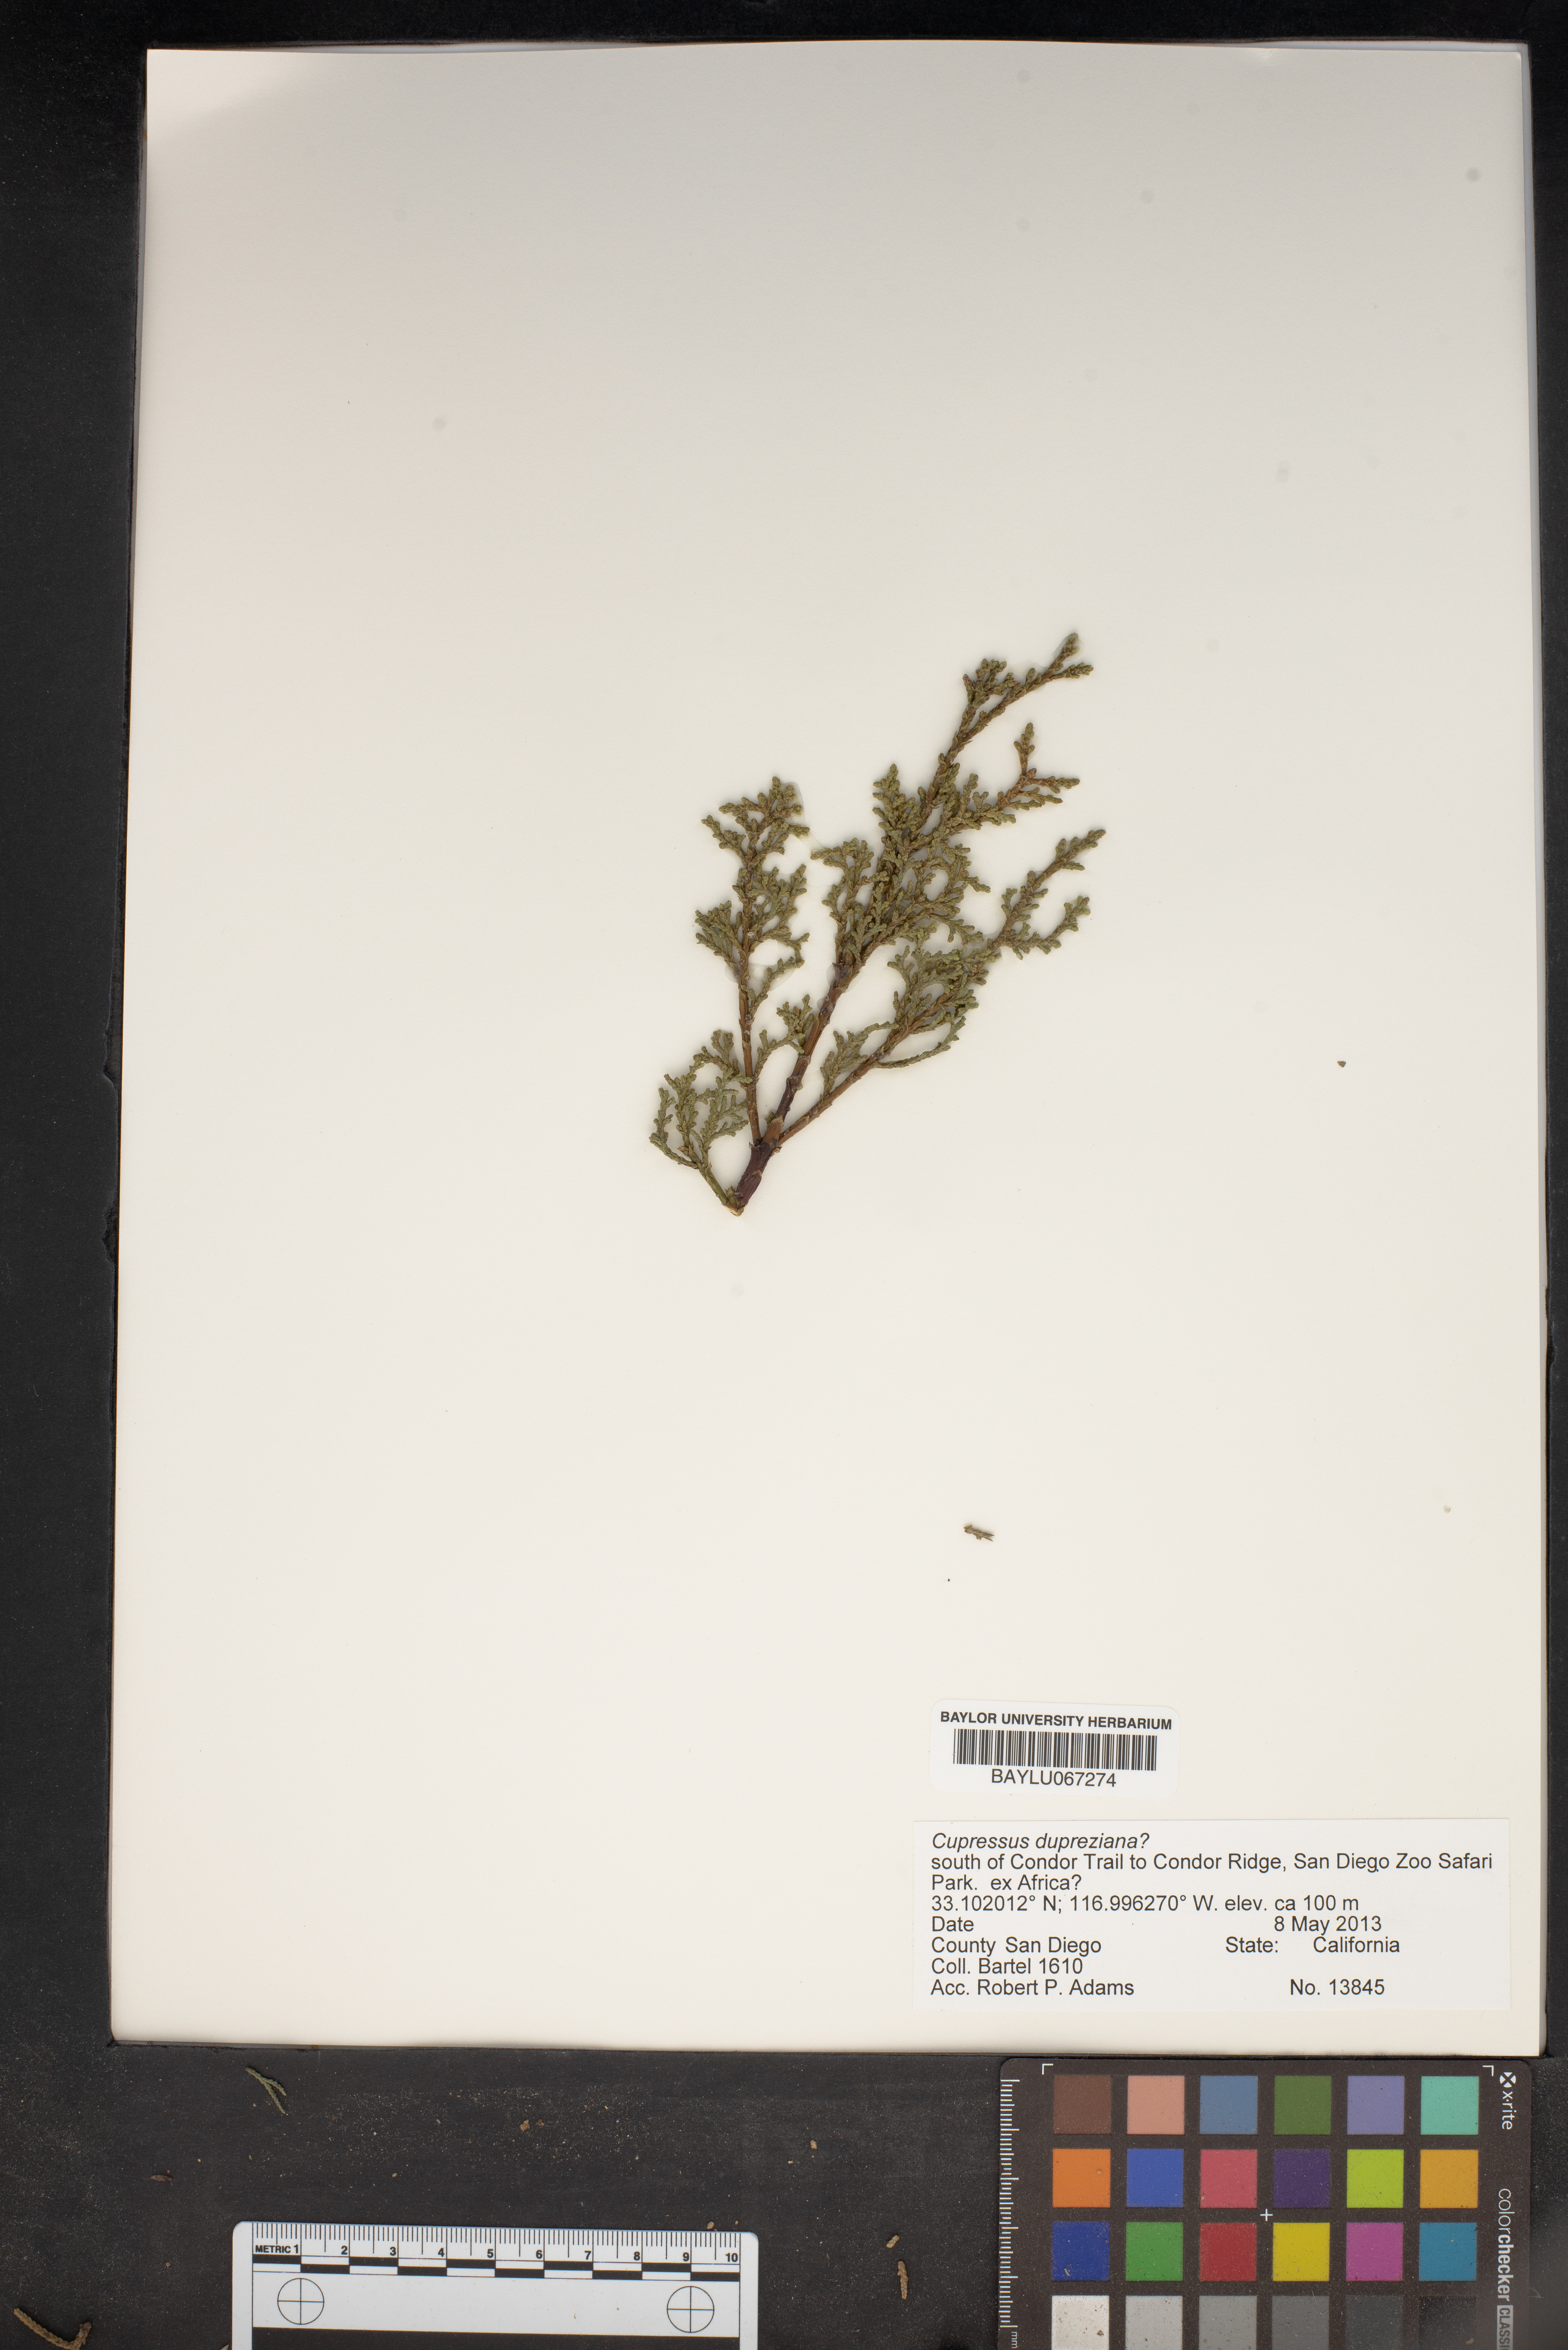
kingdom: Plantae
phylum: Tracheophyta
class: Pinopsida
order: Pinales
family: Cupressaceae
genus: Cupressus
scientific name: Cupressus dupreziana
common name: Moroccan cypress
